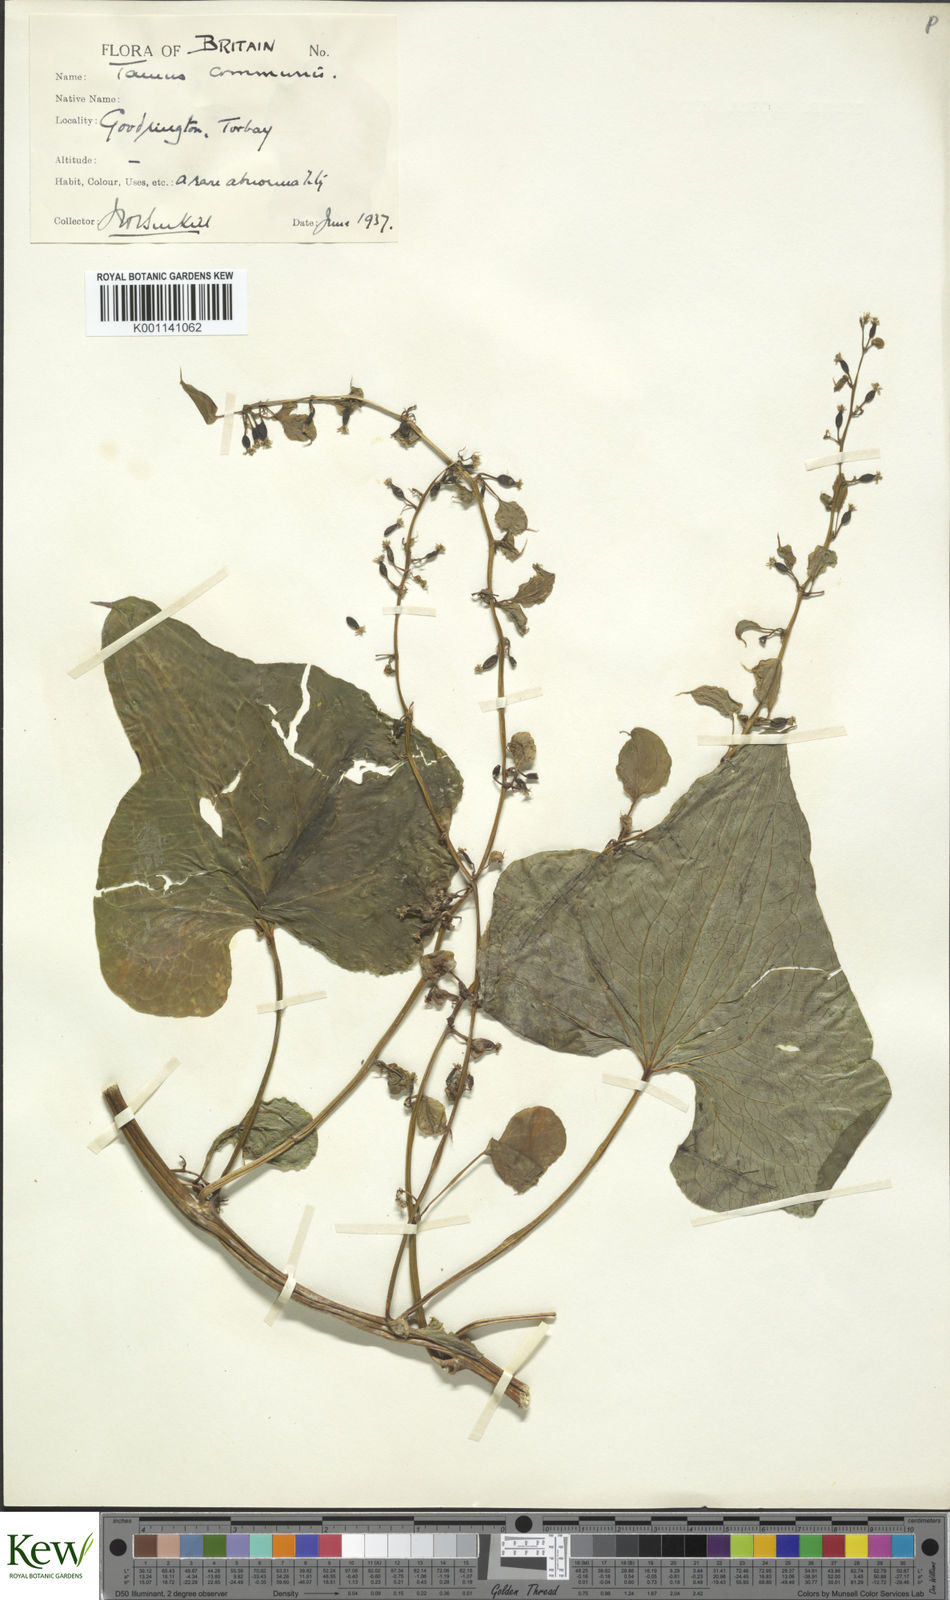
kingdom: Plantae
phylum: Tracheophyta
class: Liliopsida
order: Dioscoreales
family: Dioscoreaceae
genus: Dioscorea
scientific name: Dioscorea communis
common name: Black-bindweed
